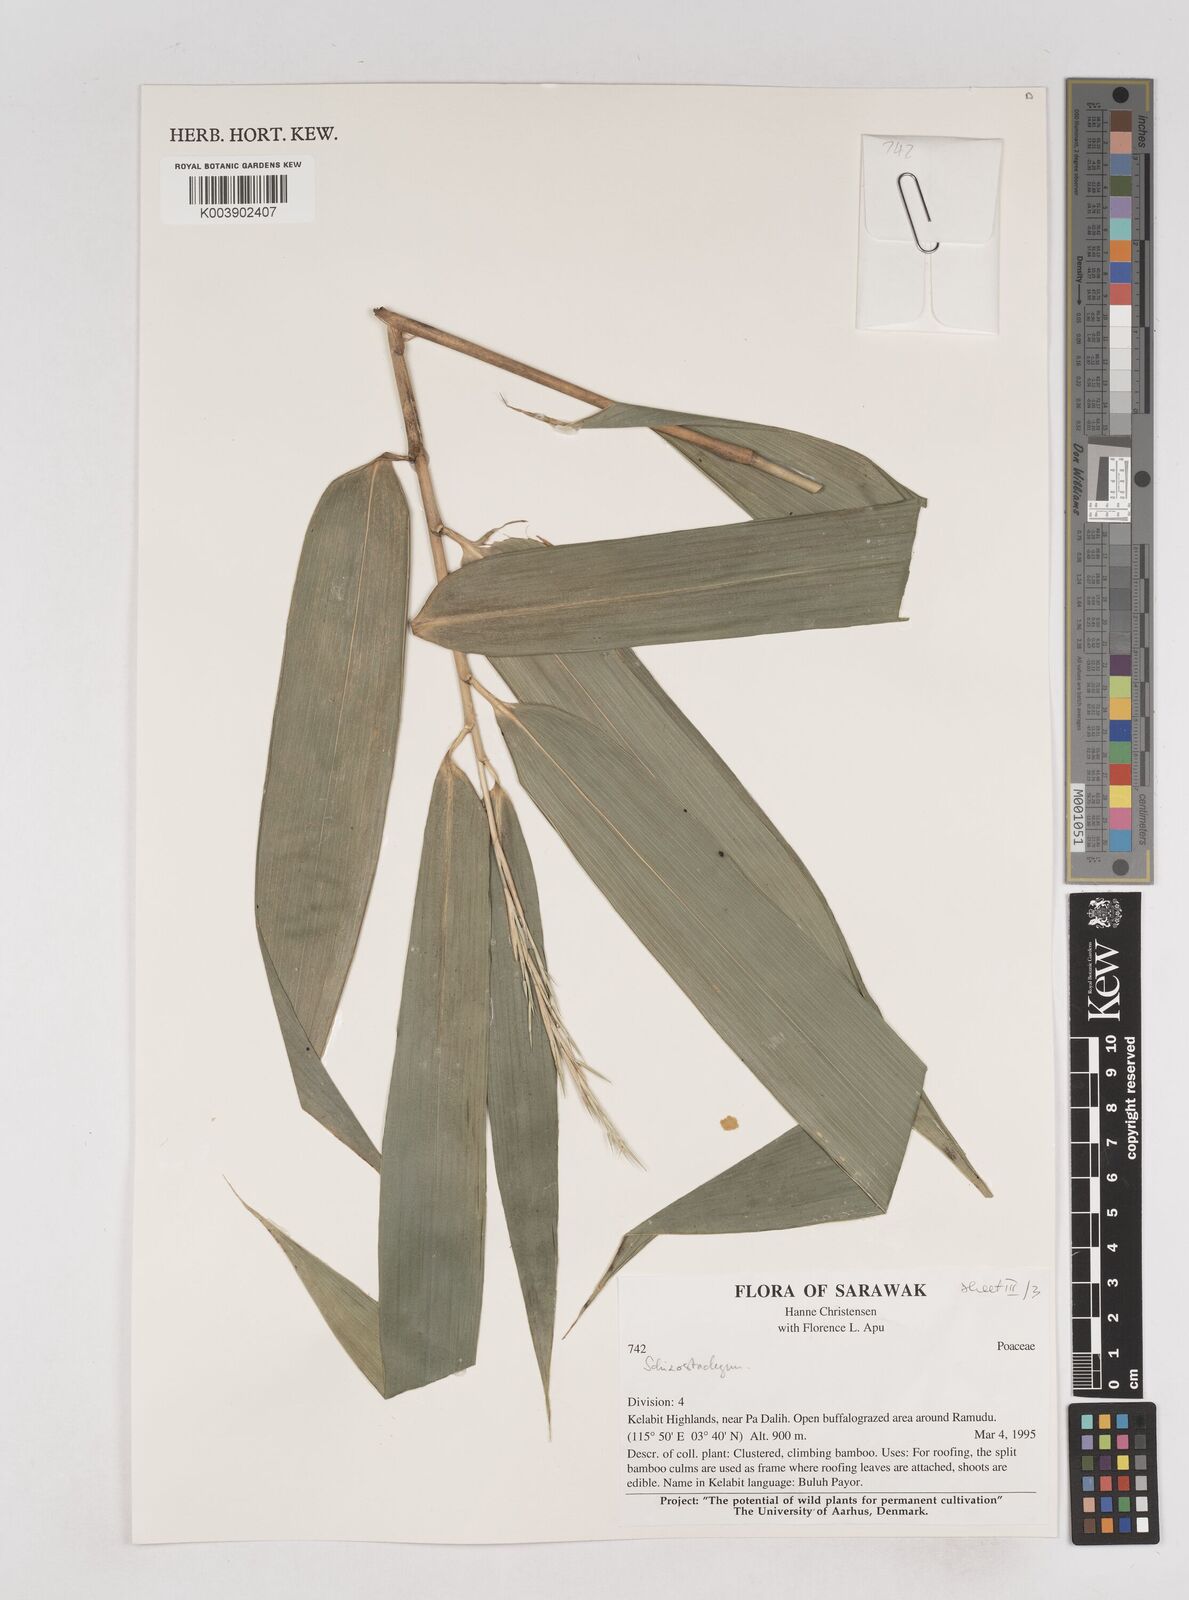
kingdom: Plantae
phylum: Tracheophyta
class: Liliopsida
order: Poales
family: Poaceae
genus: Schizostachyum
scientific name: Schizostachyum
